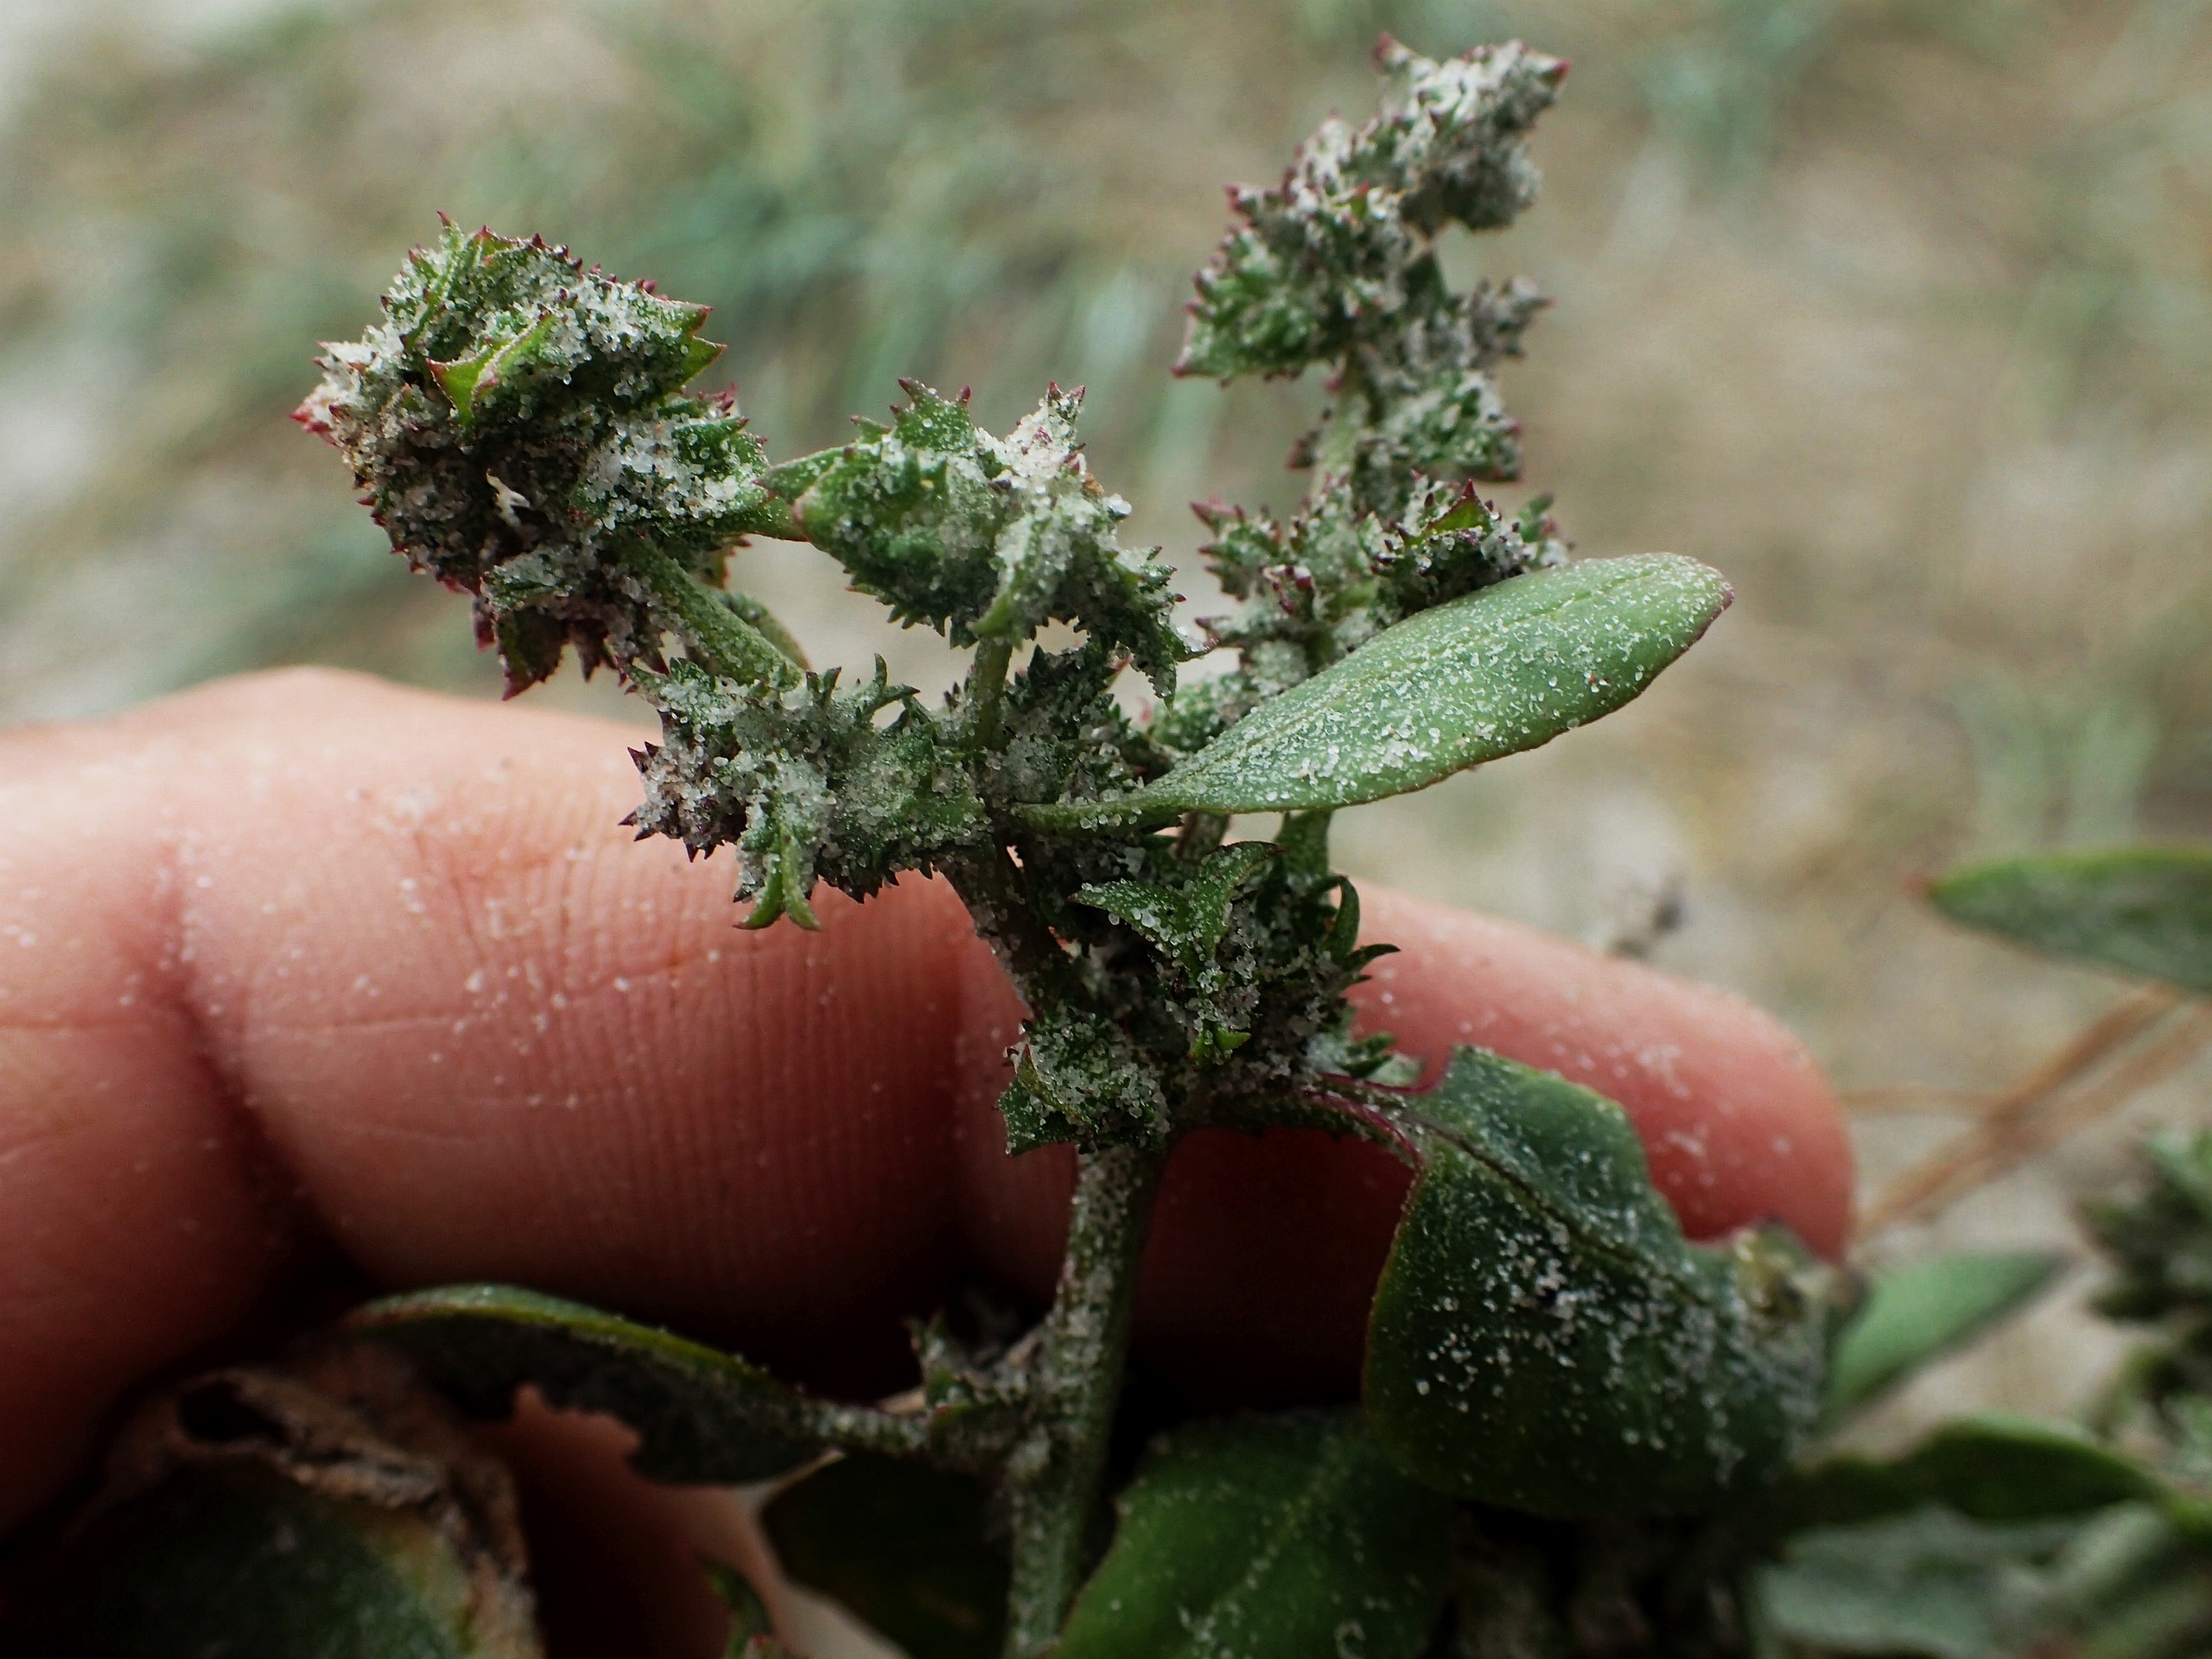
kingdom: Plantae
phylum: Tracheophyta
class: Magnoliopsida
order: Caryophyllales
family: Amaranthaceae
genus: Atriplex
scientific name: Atriplex prostrata
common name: Melet spyd-mælde
